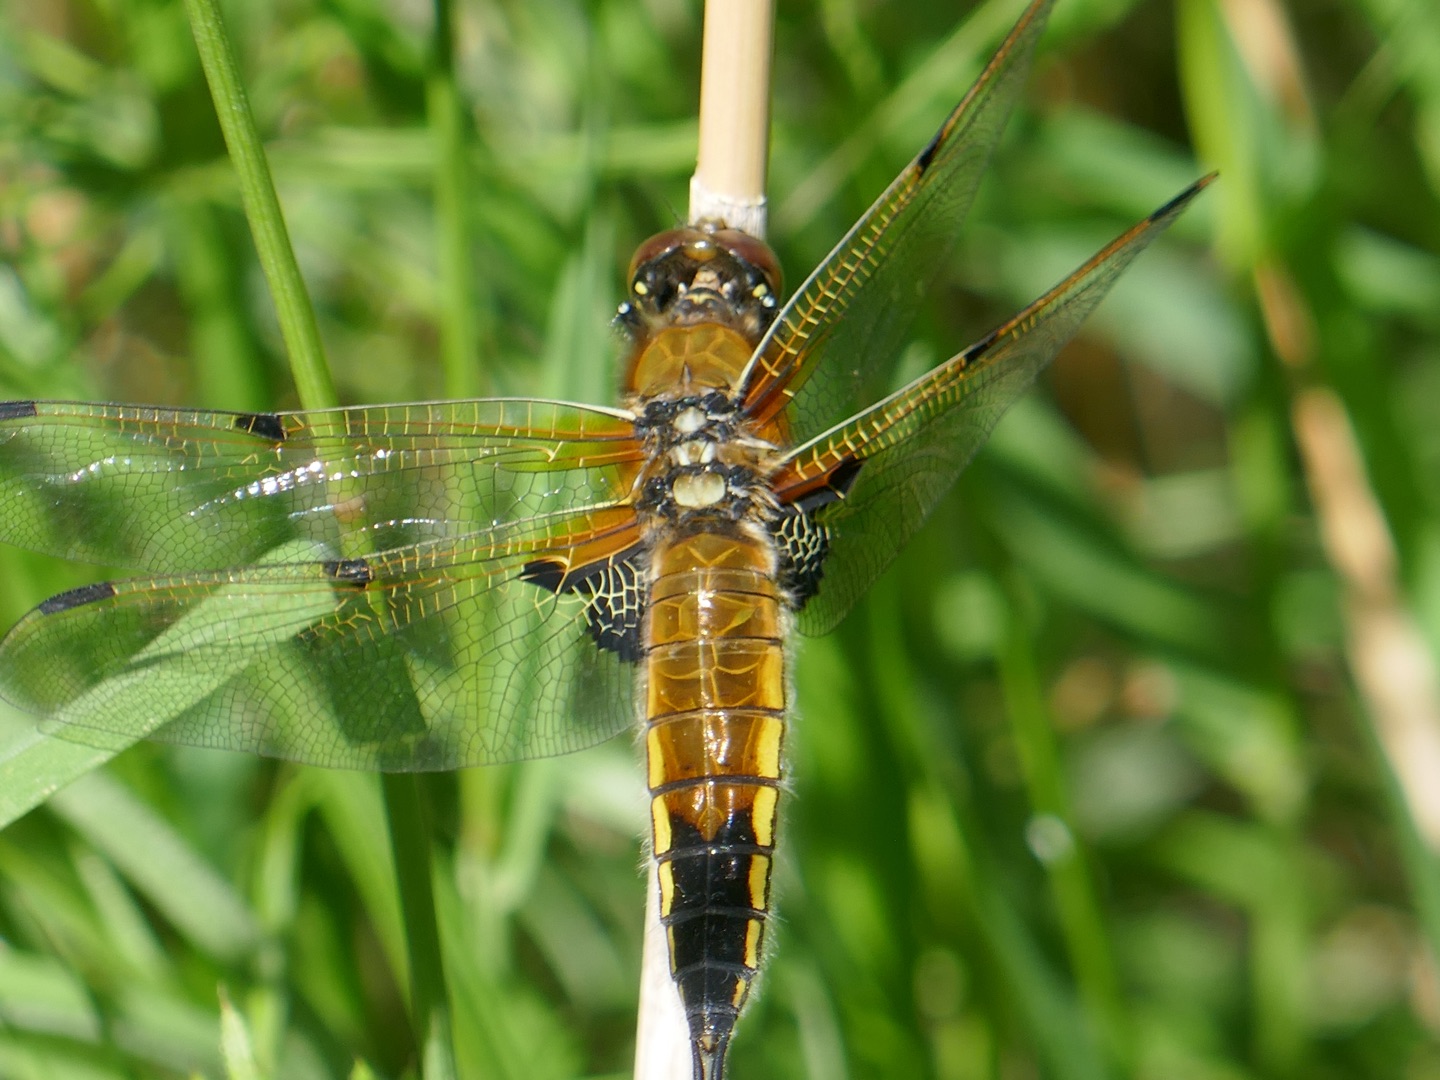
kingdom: Animalia
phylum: Arthropoda
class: Insecta
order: Odonata
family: Libellulidae
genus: Libellula
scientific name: Libellula quadrimaculata
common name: Fireplettet libel
